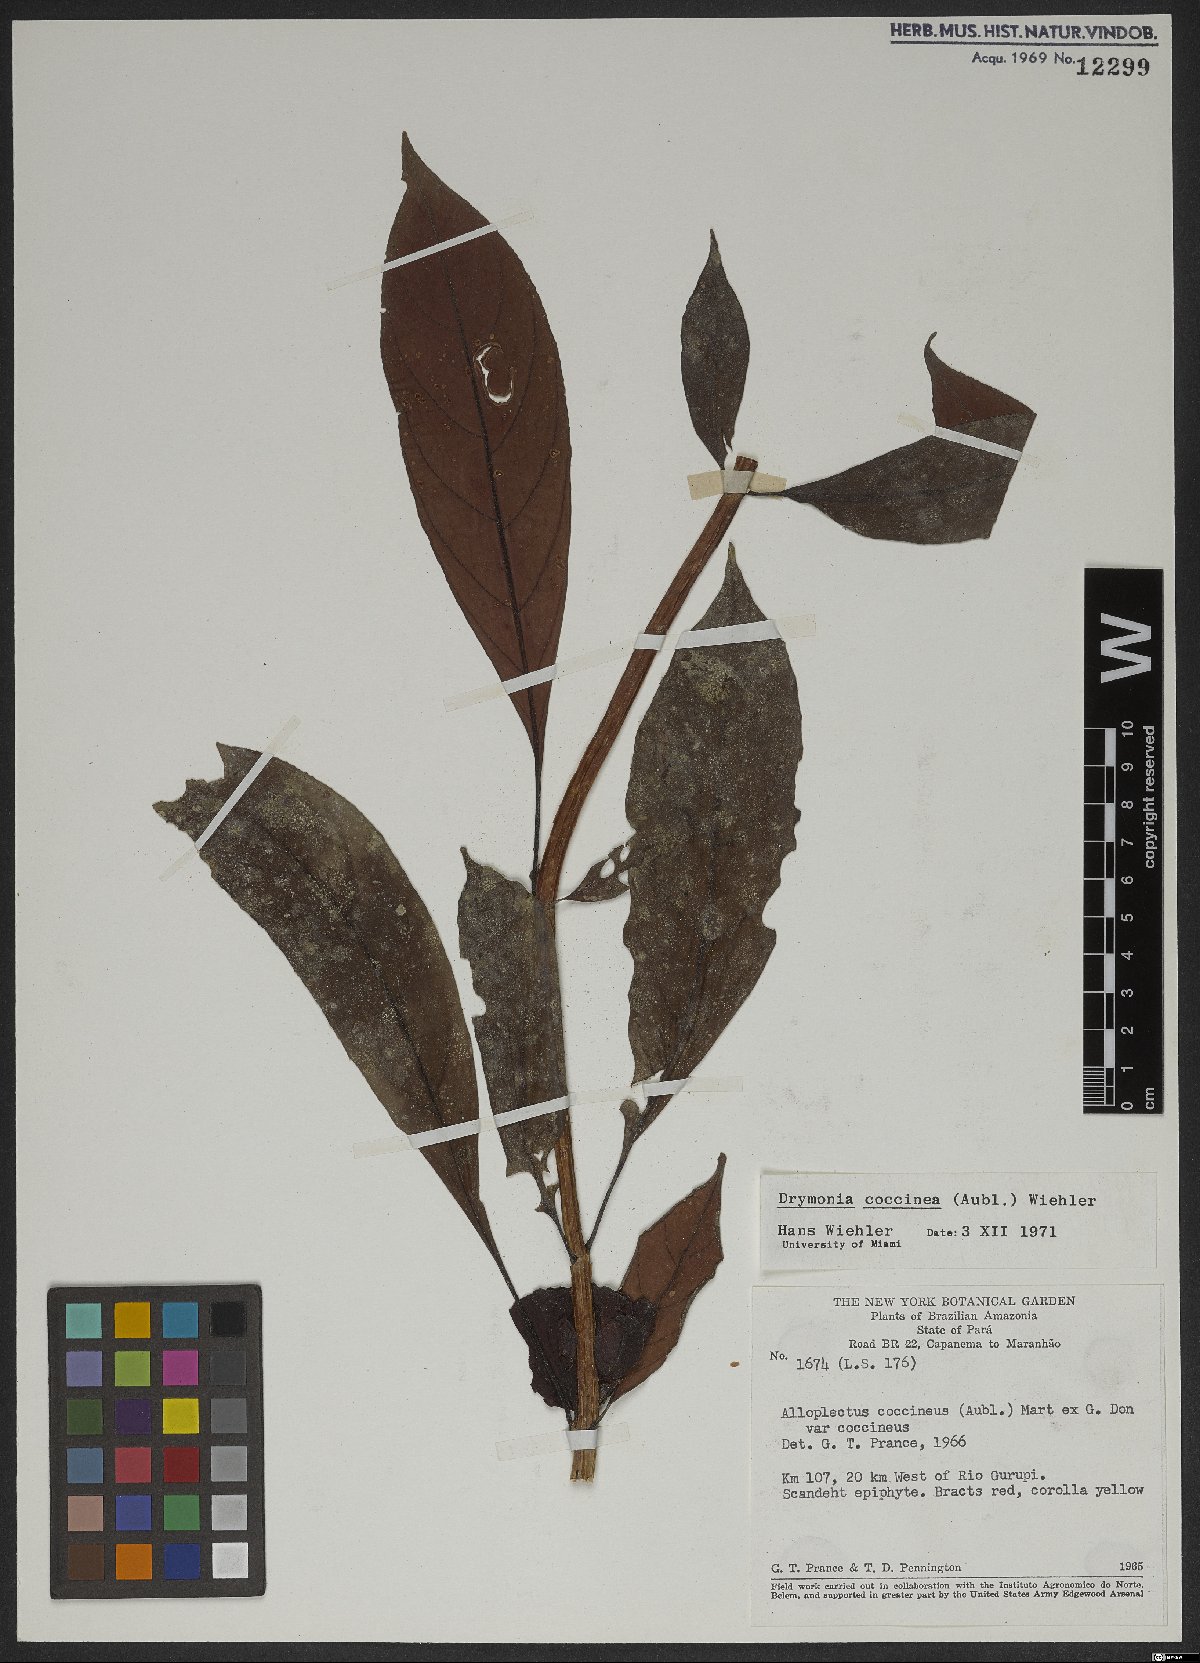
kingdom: Plantae
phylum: Tracheophyta
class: Magnoliopsida
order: Lamiales
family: Gesneriaceae
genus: Drymonia
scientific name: Drymonia coccinea
